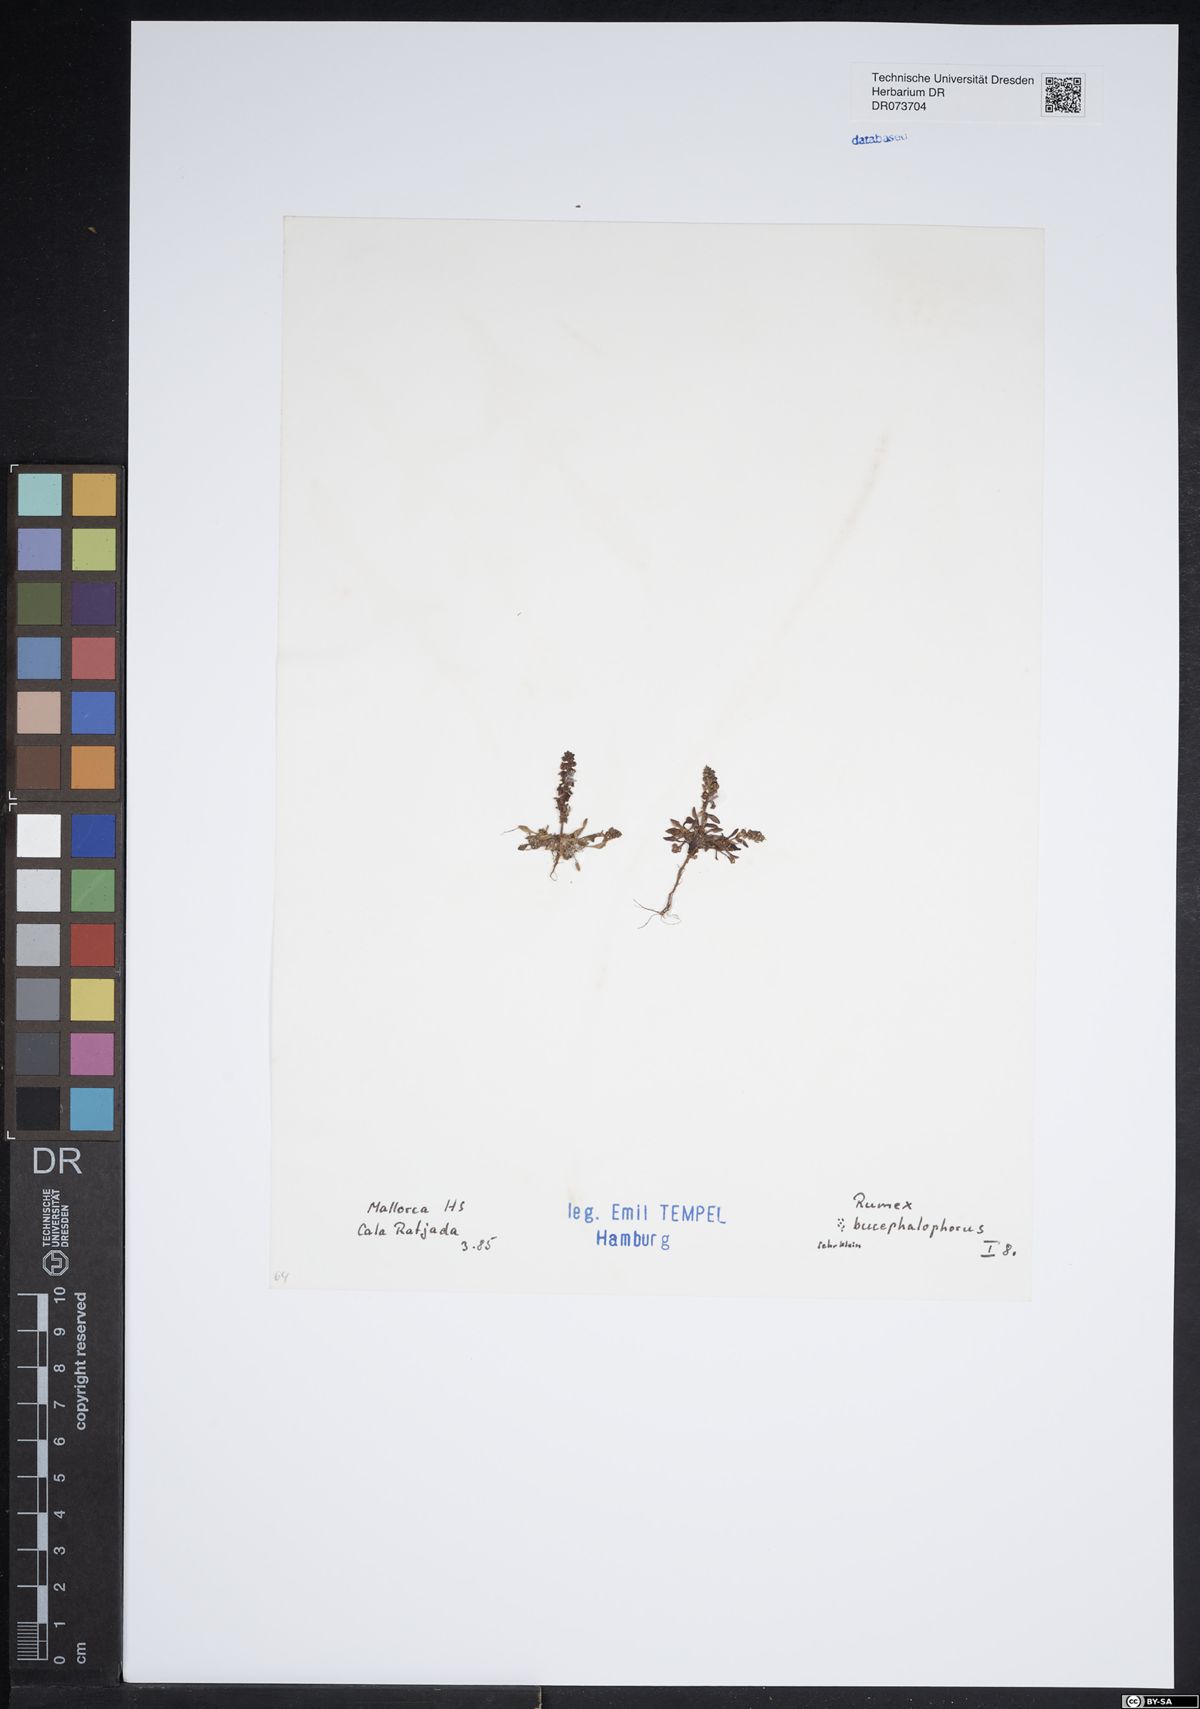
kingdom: Plantae
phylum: Tracheophyta
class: Magnoliopsida
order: Caryophyllales
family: Polygonaceae
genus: Rumex
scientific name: Rumex bucephalophorus
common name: Red dock
